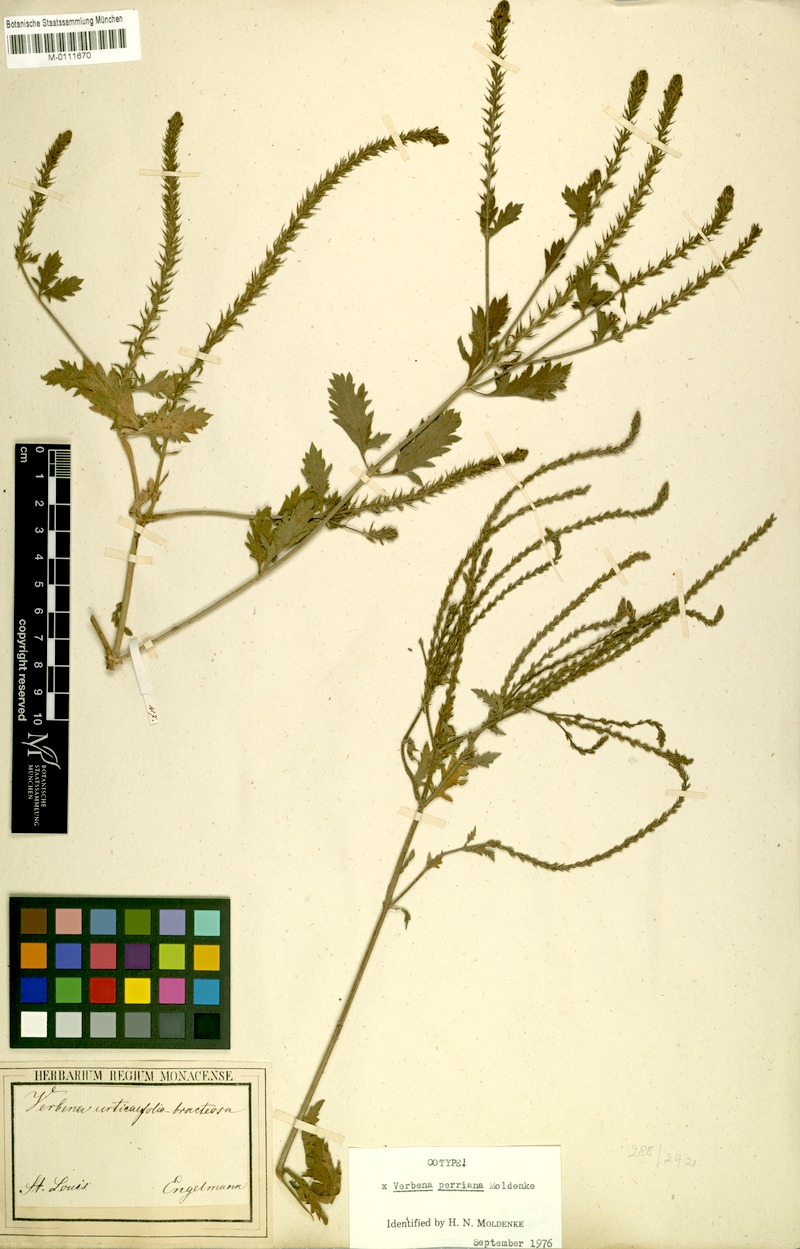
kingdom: Plantae
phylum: Tracheophyta
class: Magnoliopsida
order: Lamiales
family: Verbenaceae
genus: Verbena
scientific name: Verbena perriana
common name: Perry's vervain
